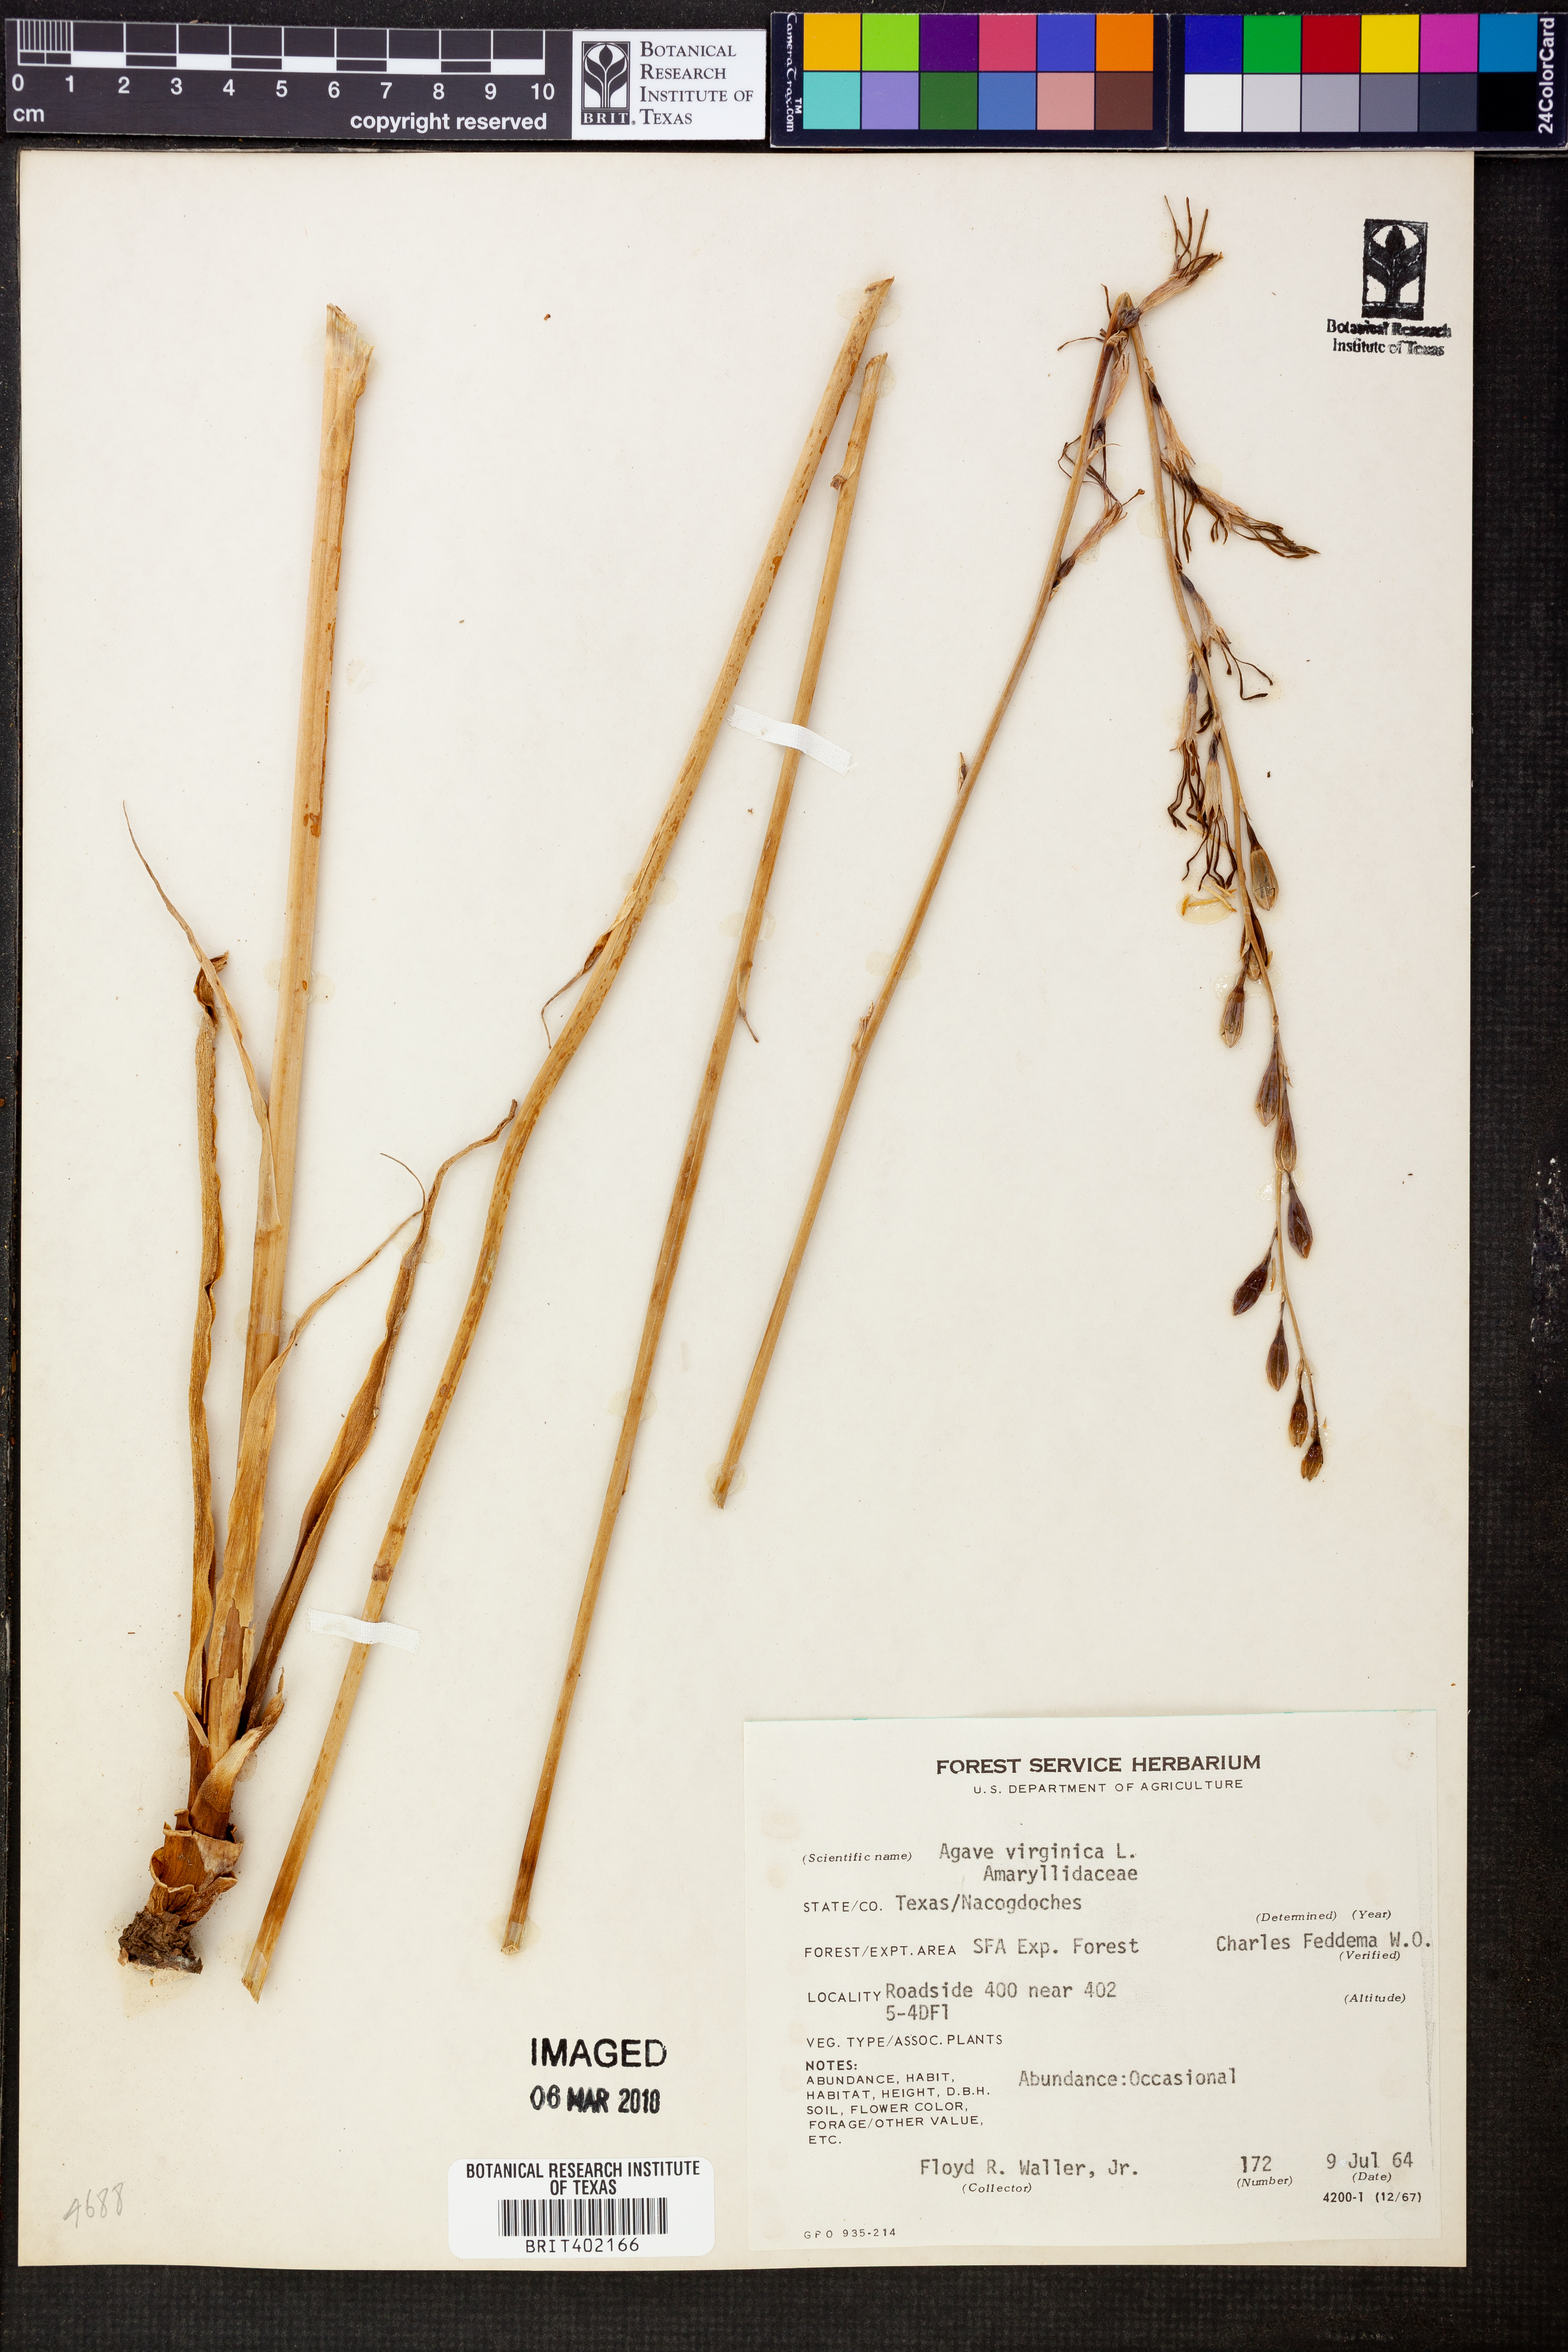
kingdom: Plantae
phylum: Tracheophyta
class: Liliopsida
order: Asparagales
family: Asparagaceae
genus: Agave
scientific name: Agave virginica
